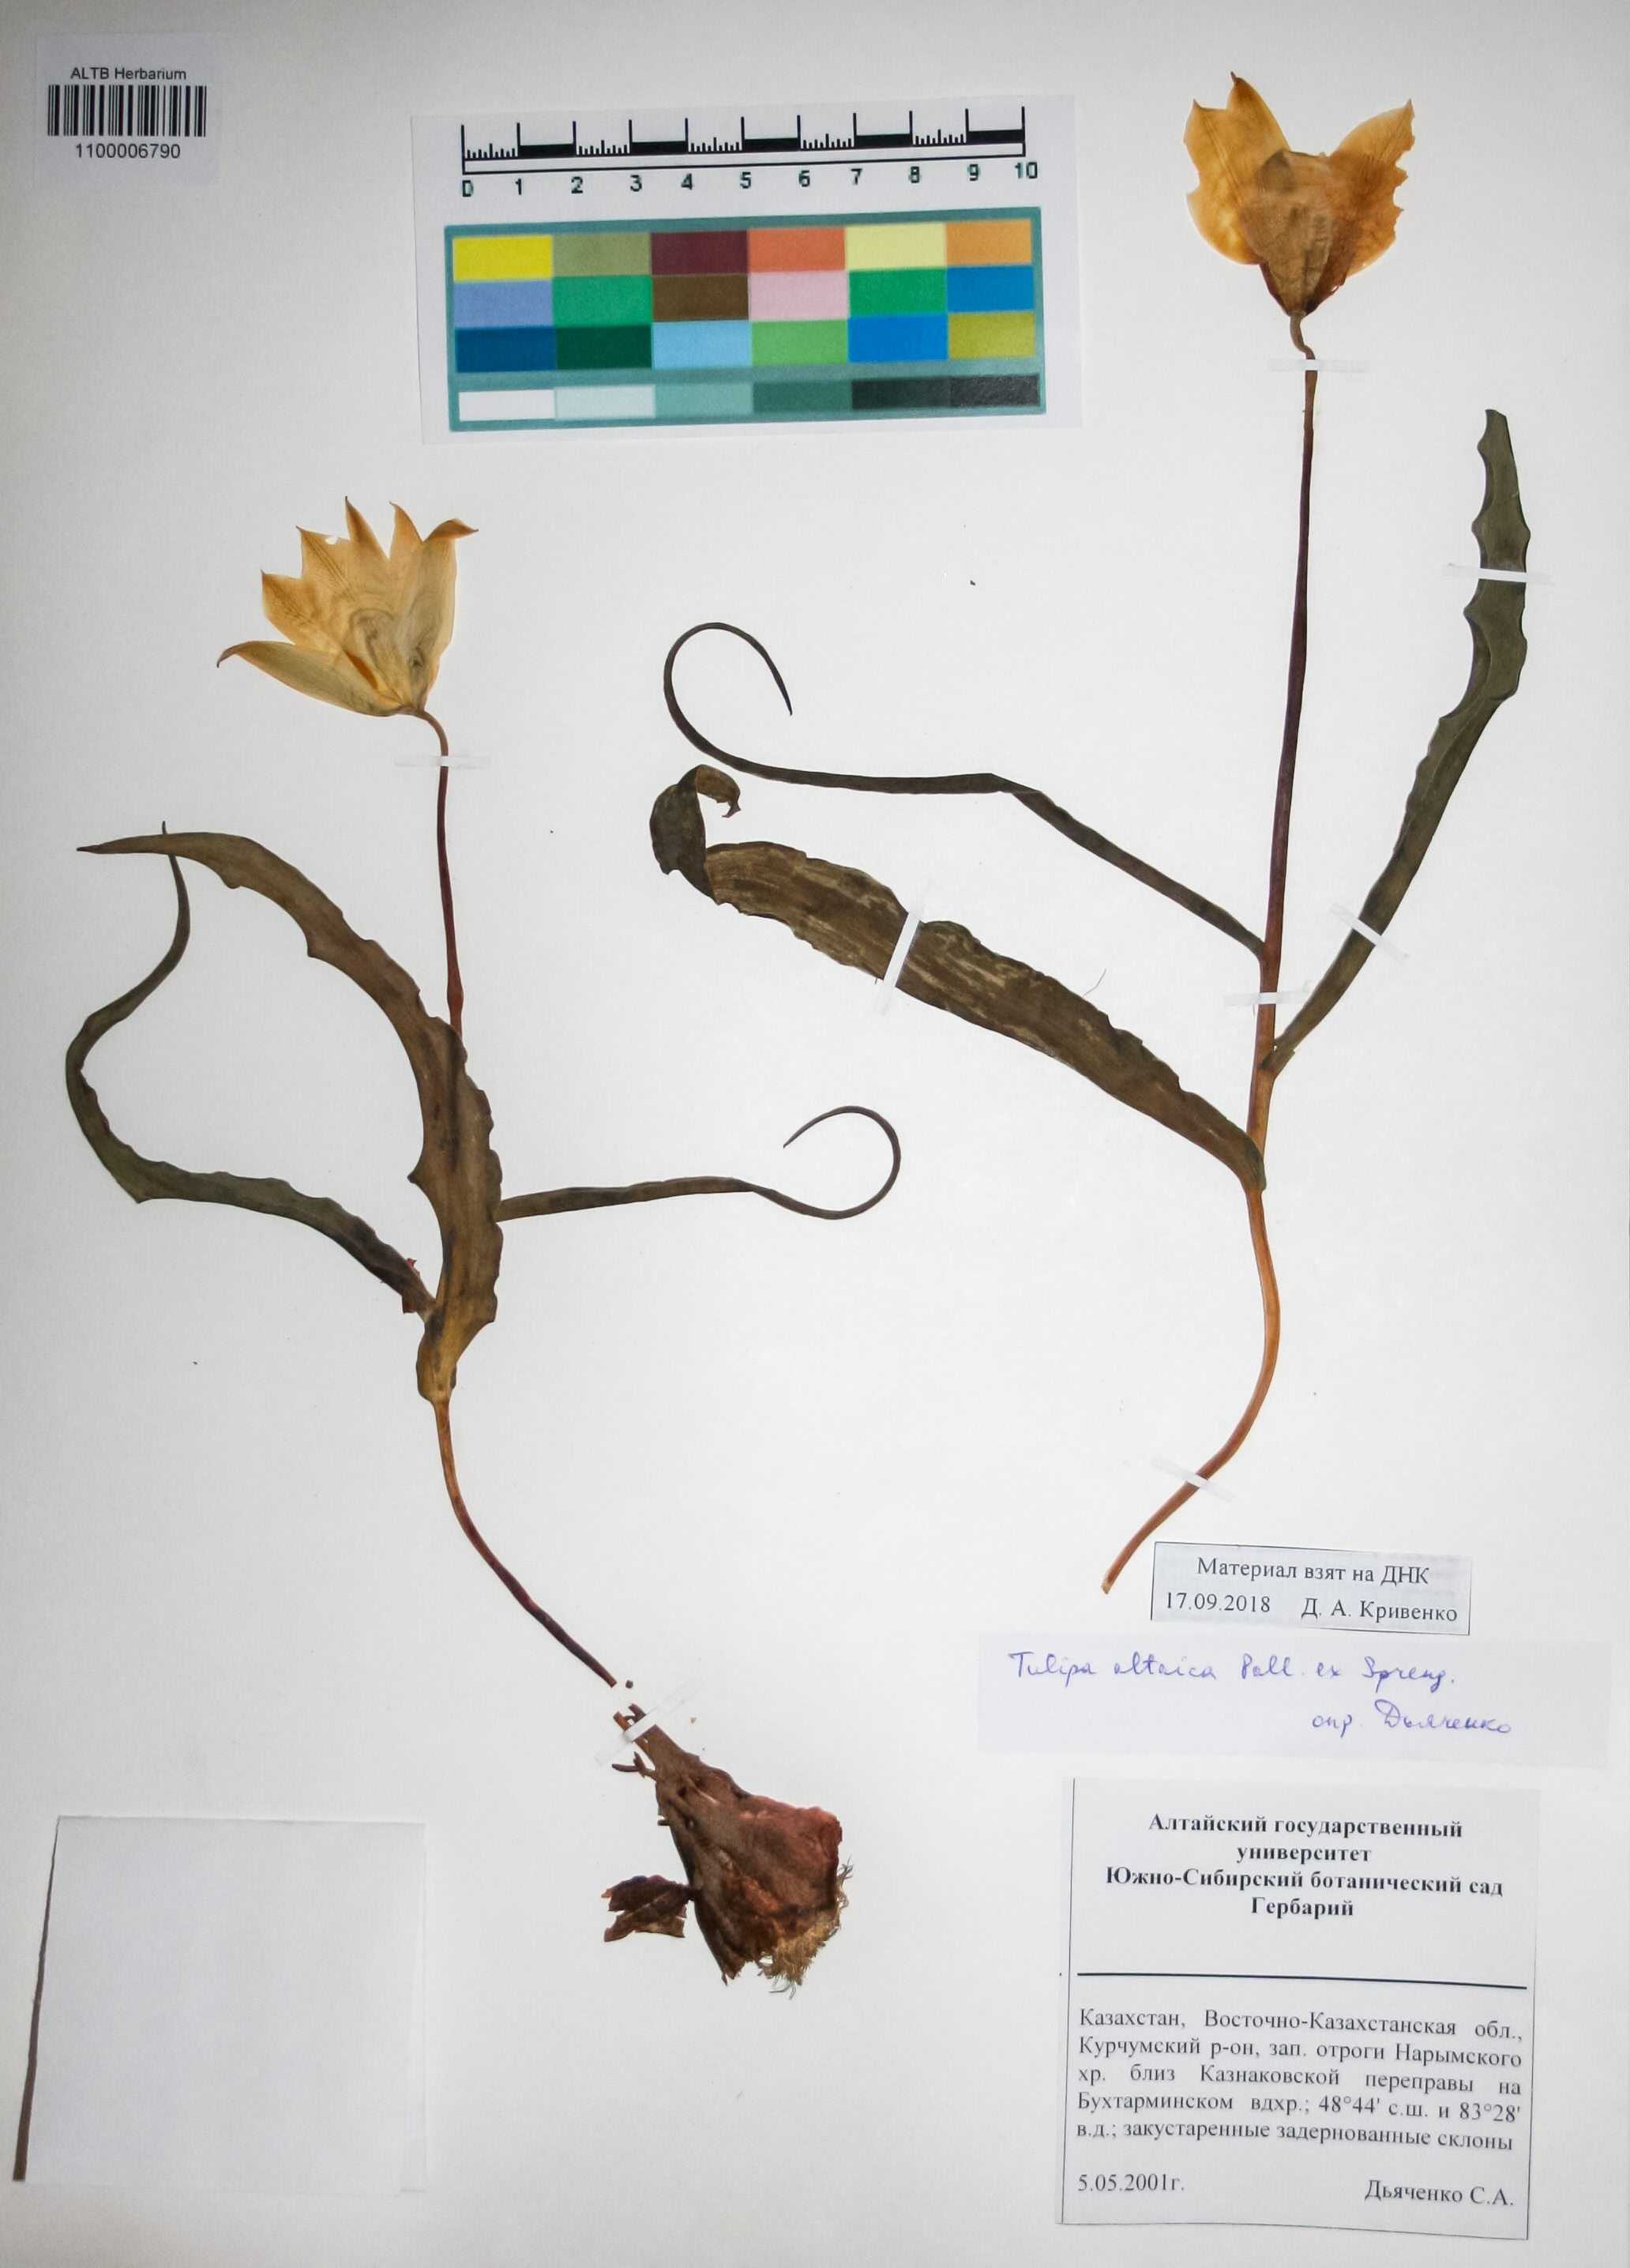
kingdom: Plantae
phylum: Tracheophyta
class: Liliopsida
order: Liliales
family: Liliaceae
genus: Tulipa
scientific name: Tulipa altaica
